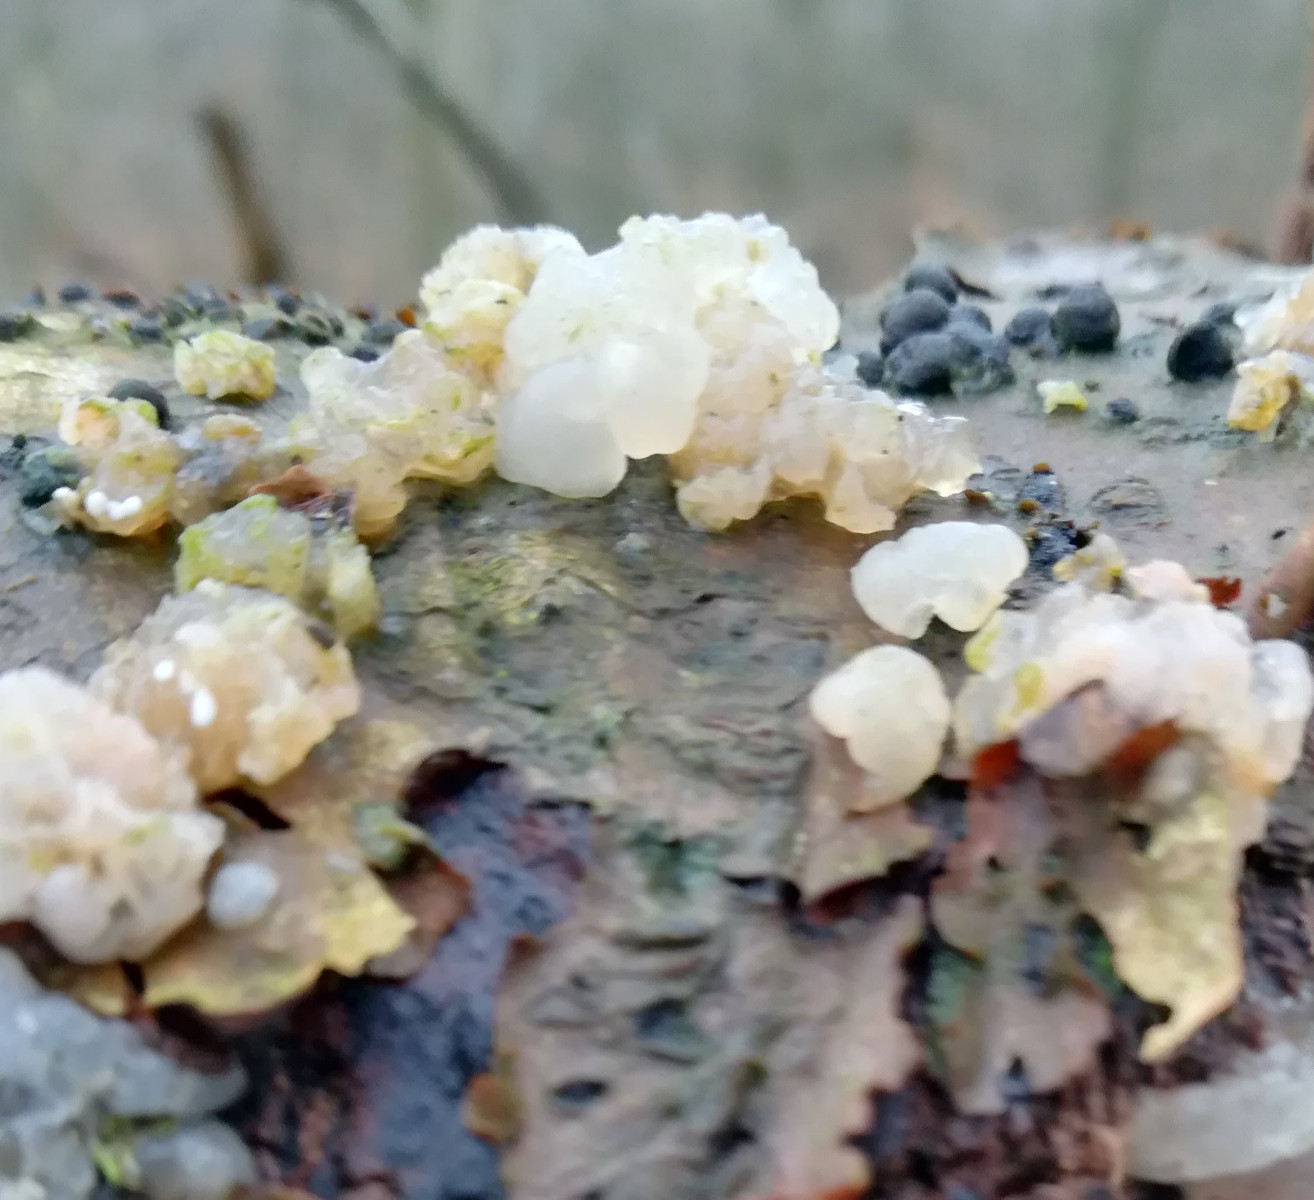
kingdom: Fungi
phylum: Basidiomycota
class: Agaricomycetes
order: Auriculariales
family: Hyaloriaceae
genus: Myxarium
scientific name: Myxarium nucleatum
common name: klar bævretop
